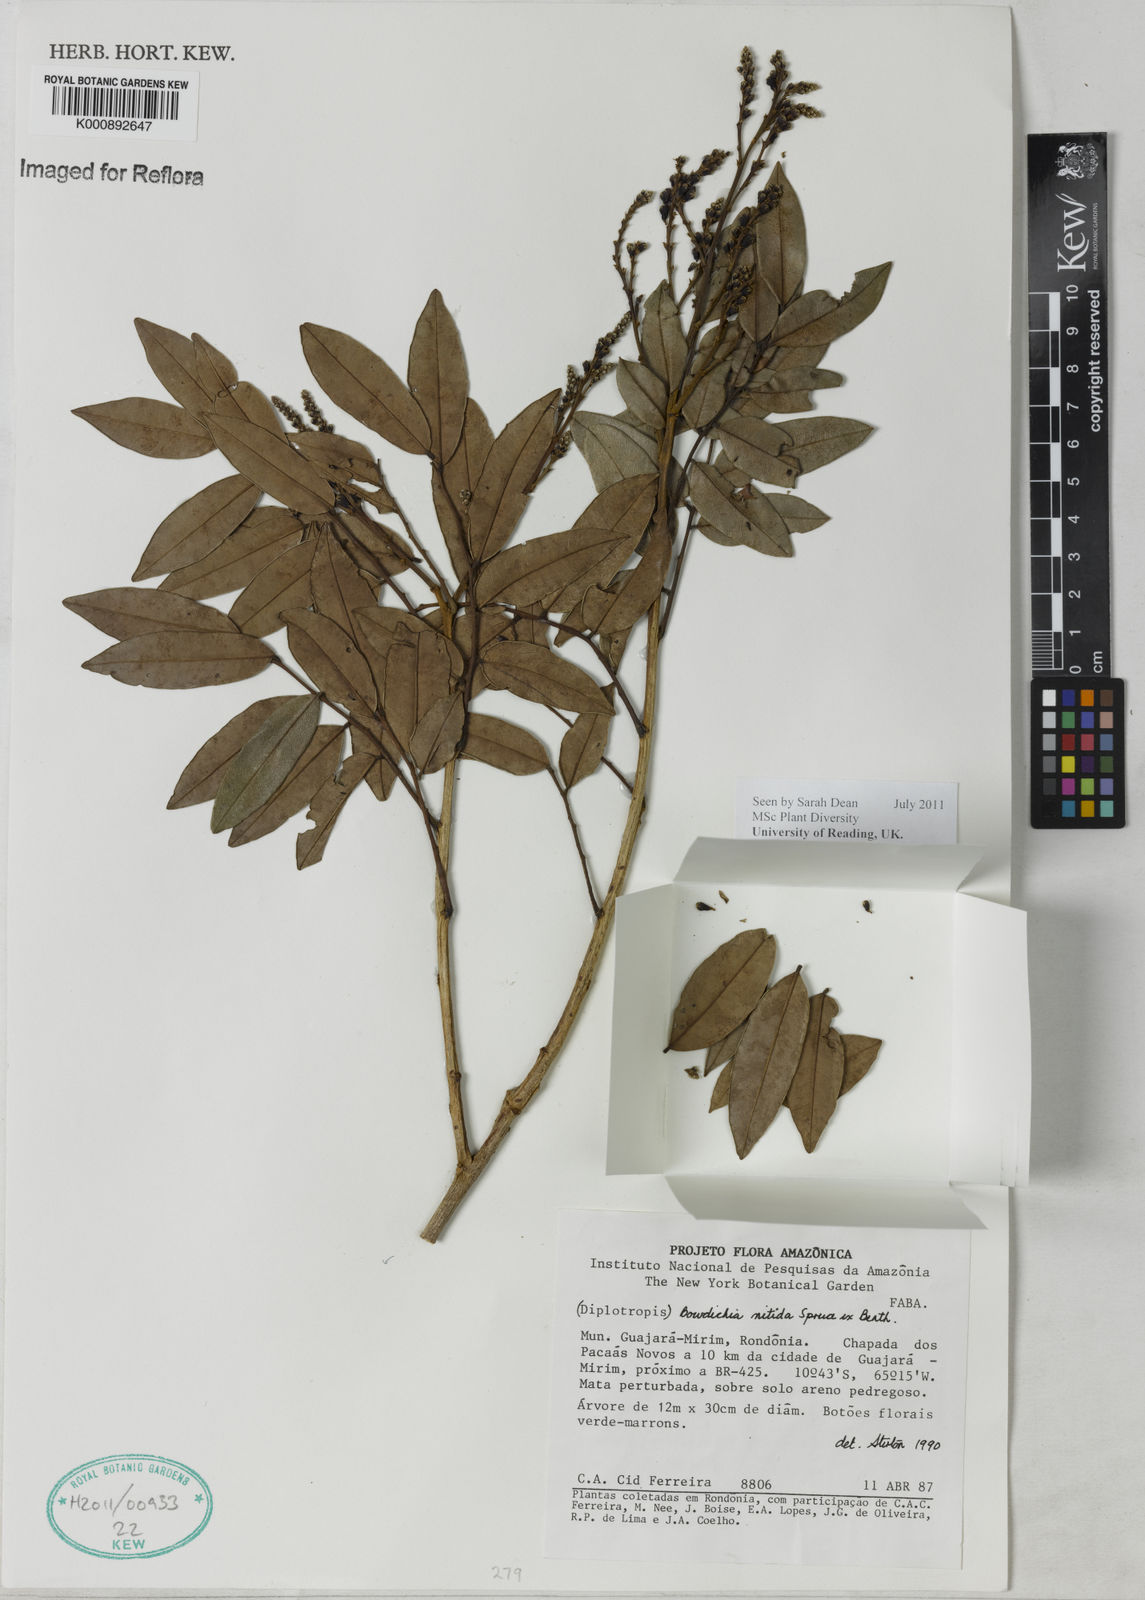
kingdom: Plantae
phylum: Tracheophyta
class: Magnoliopsida
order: Fabales
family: Fabaceae
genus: Bowdichia
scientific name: Bowdichia nitida
